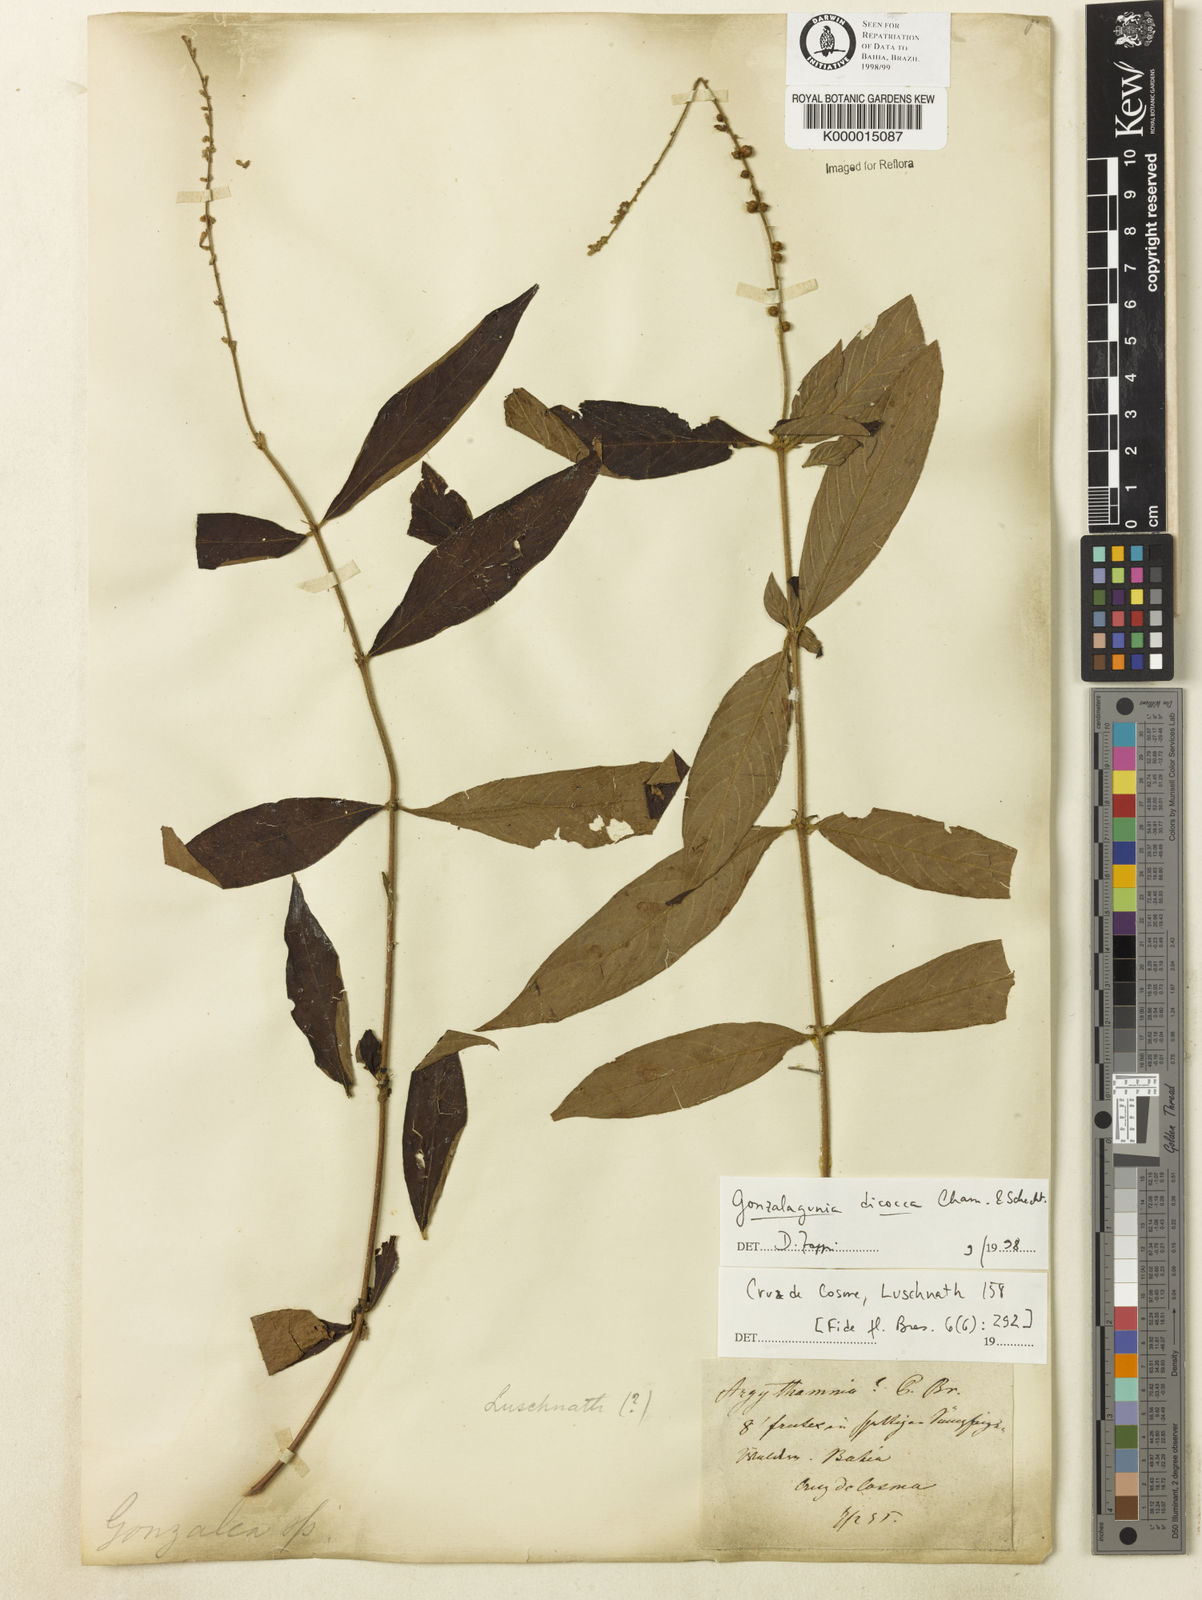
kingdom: Plantae
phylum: Tracheophyta
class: Magnoliopsida
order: Gentianales
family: Rubiaceae
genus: Gonzalagunia
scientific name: Gonzalagunia dicocca
